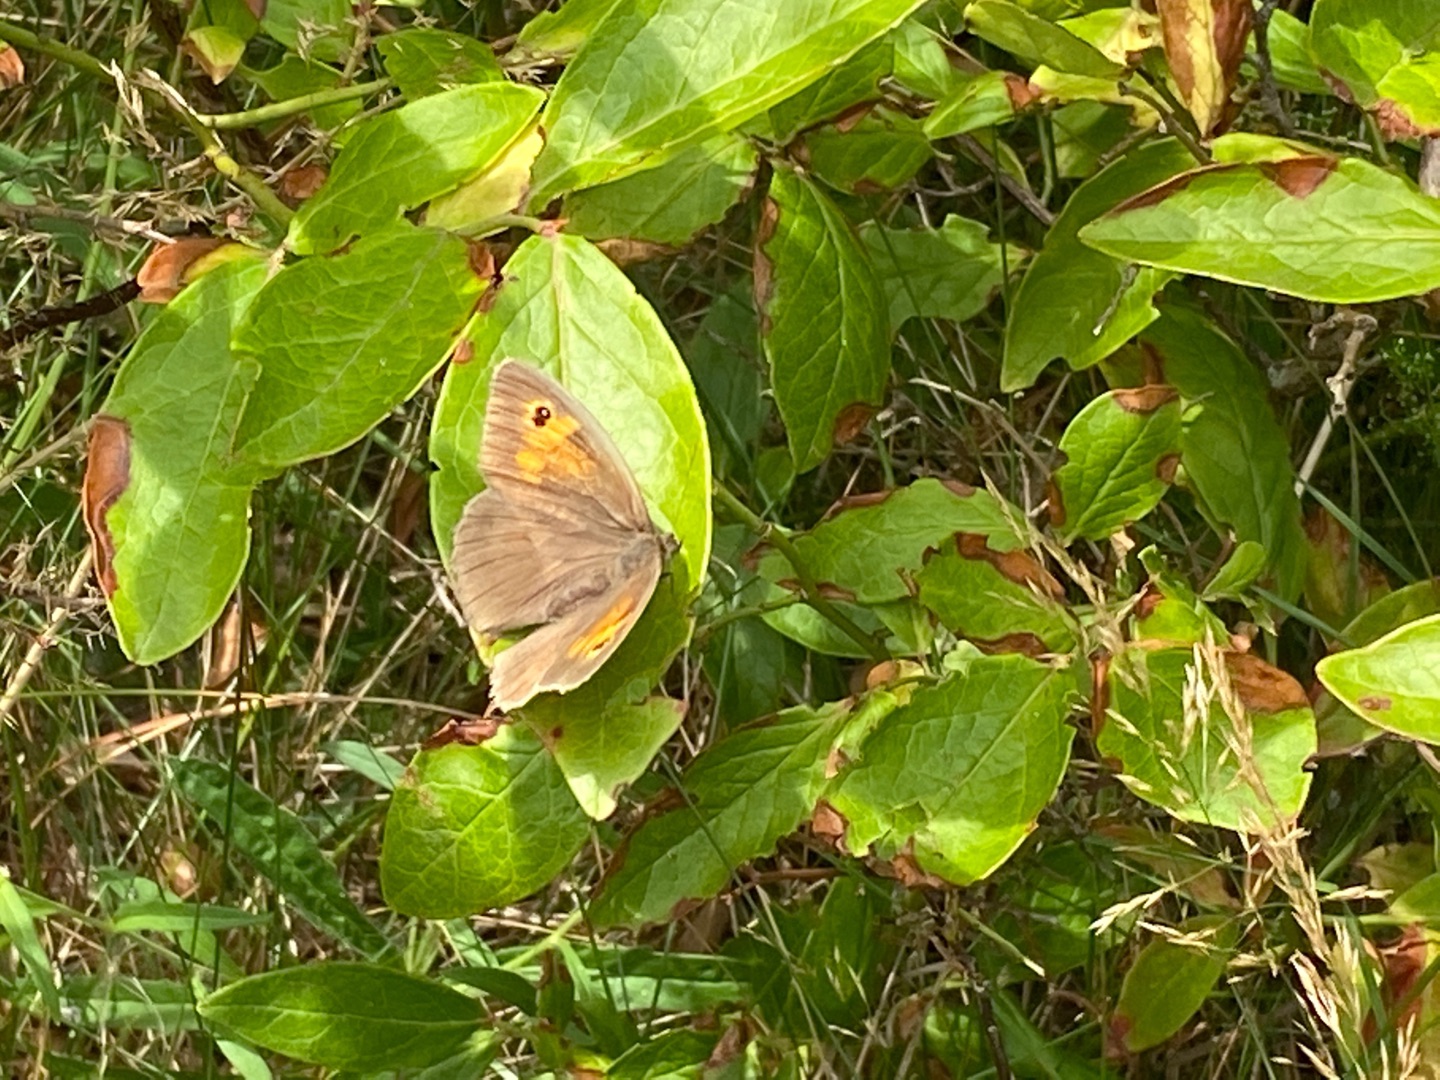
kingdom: Animalia
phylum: Arthropoda
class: Insecta
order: Lepidoptera
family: Nymphalidae
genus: Maniola
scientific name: Maniola jurtina
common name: Græsrandøje
